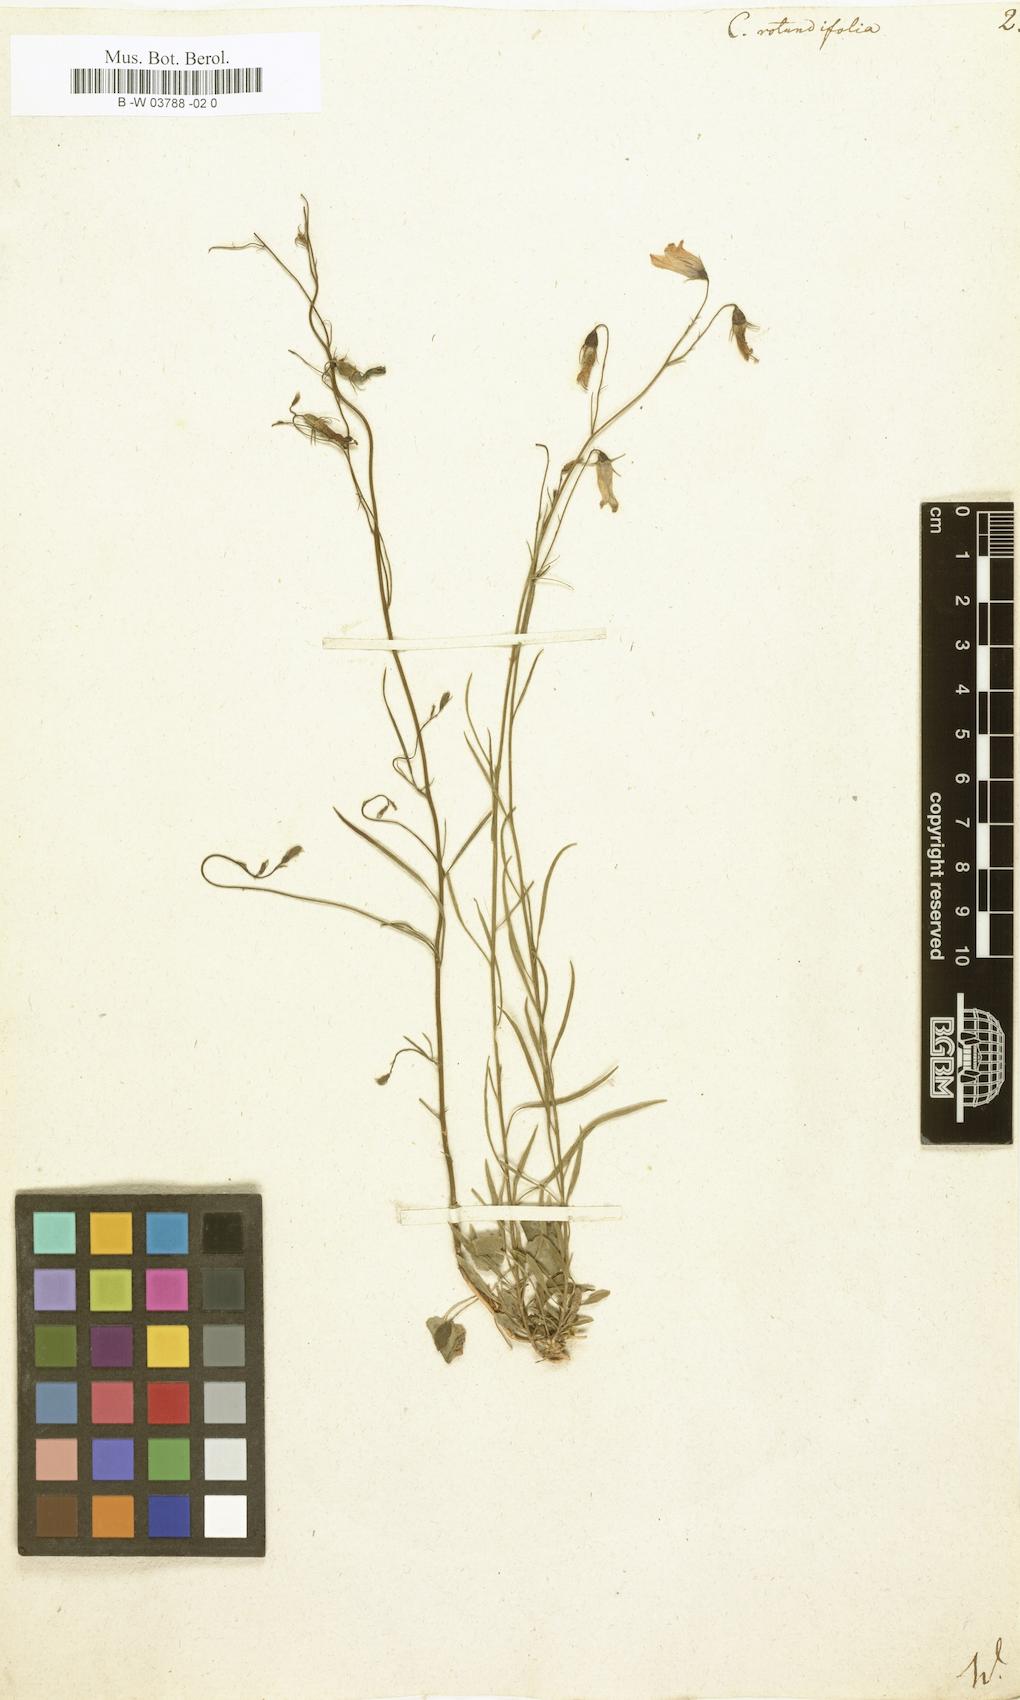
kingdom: Plantae
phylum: Tracheophyta
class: Magnoliopsida
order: Asterales
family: Campanulaceae
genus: Campanula
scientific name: Campanula rotundifolia
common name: Harebell
